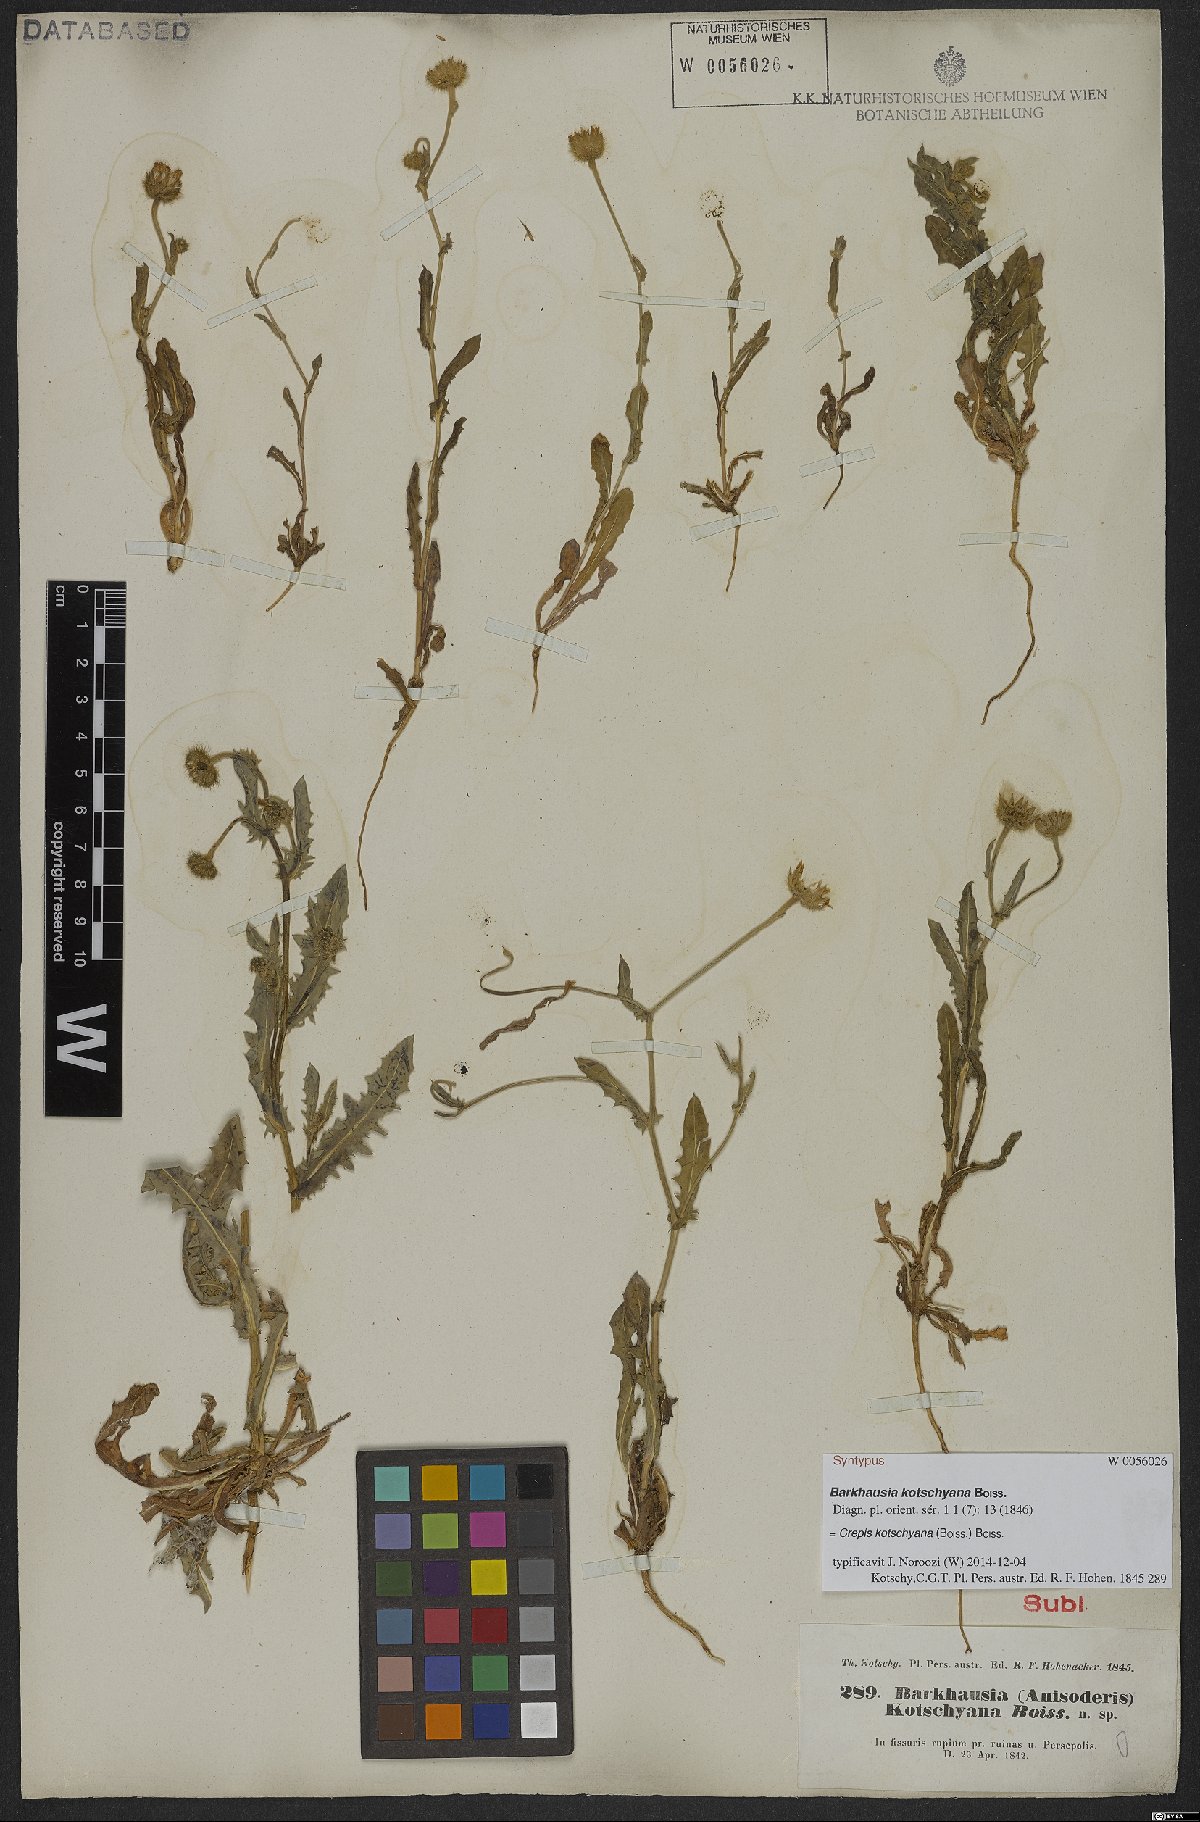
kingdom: Plantae
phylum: Tracheophyta
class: Magnoliopsida
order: Asterales
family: Asteraceae
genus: Crepis
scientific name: Crepis kotschyana
